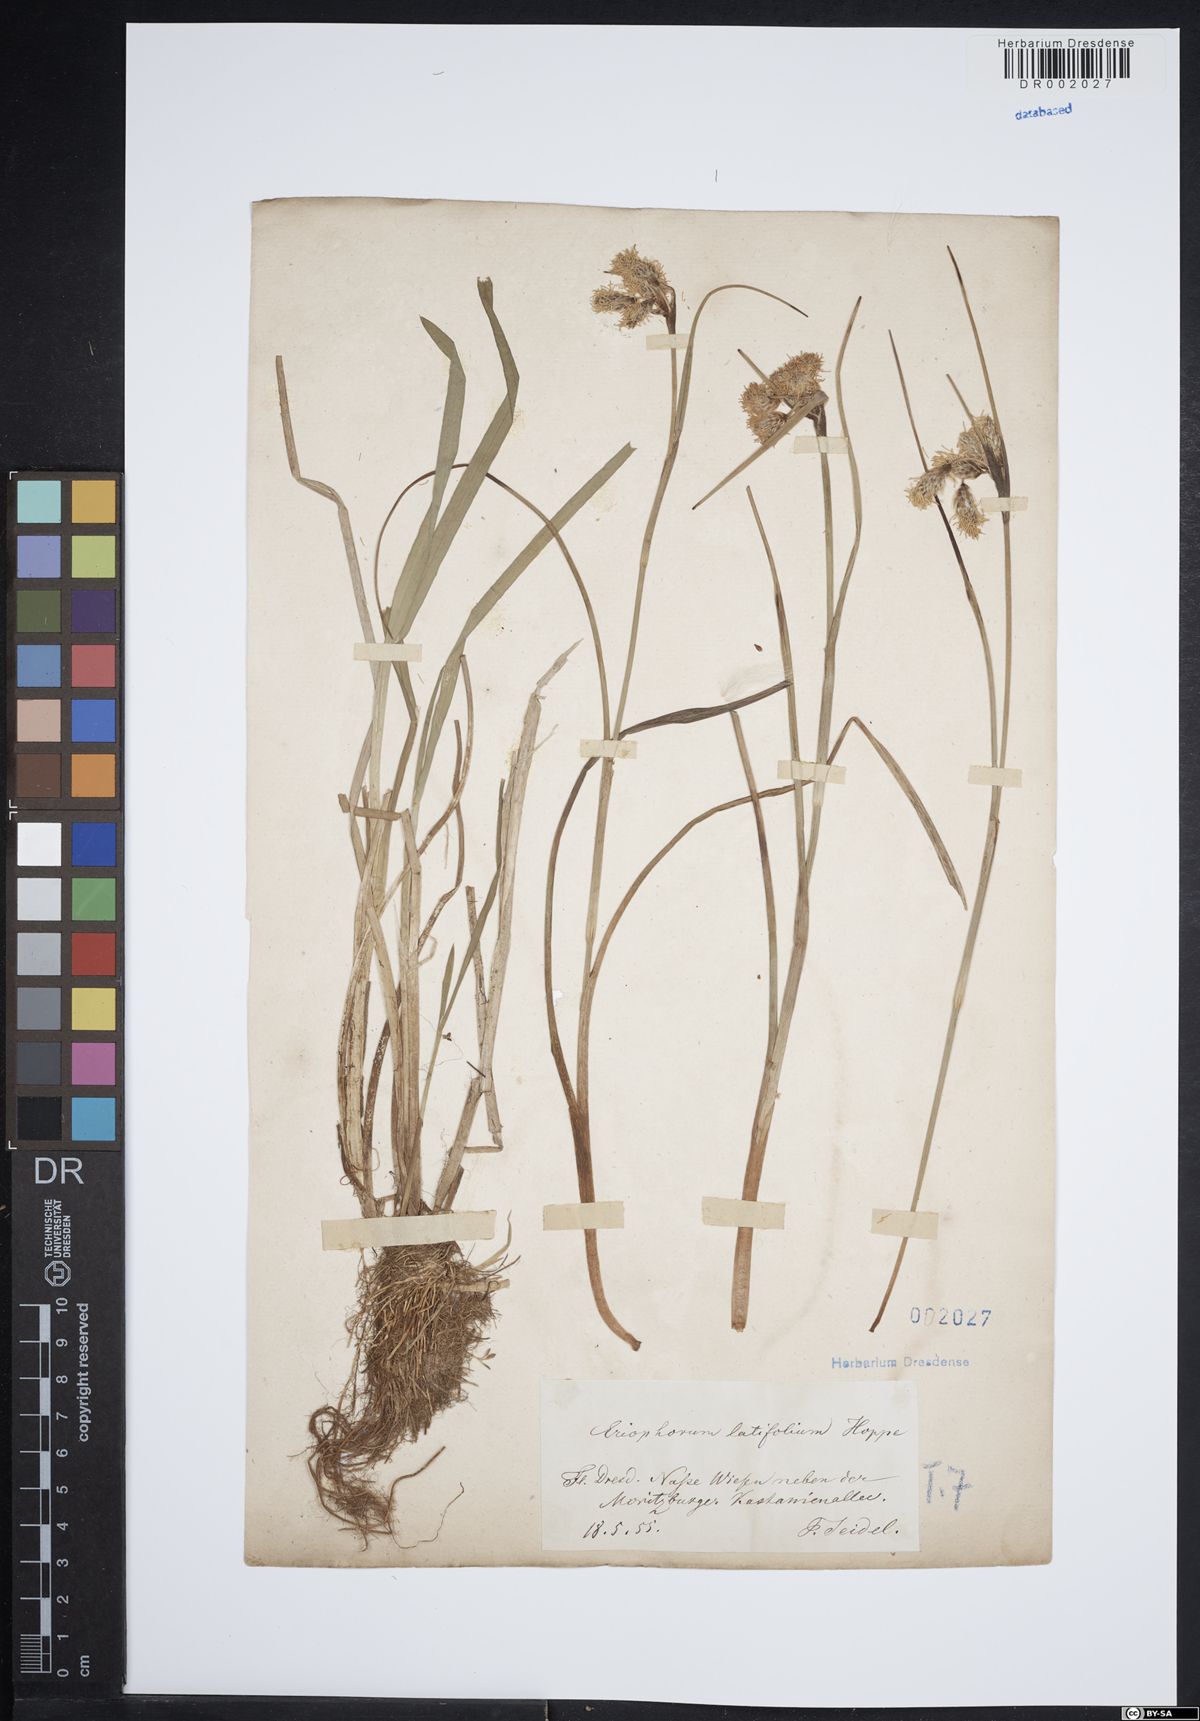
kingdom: Plantae
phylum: Tracheophyta
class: Liliopsida
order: Poales
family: Cyperaceae
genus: Eriophorum
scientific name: Eriophorum latifolium
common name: Broad-leaved cottongrass
